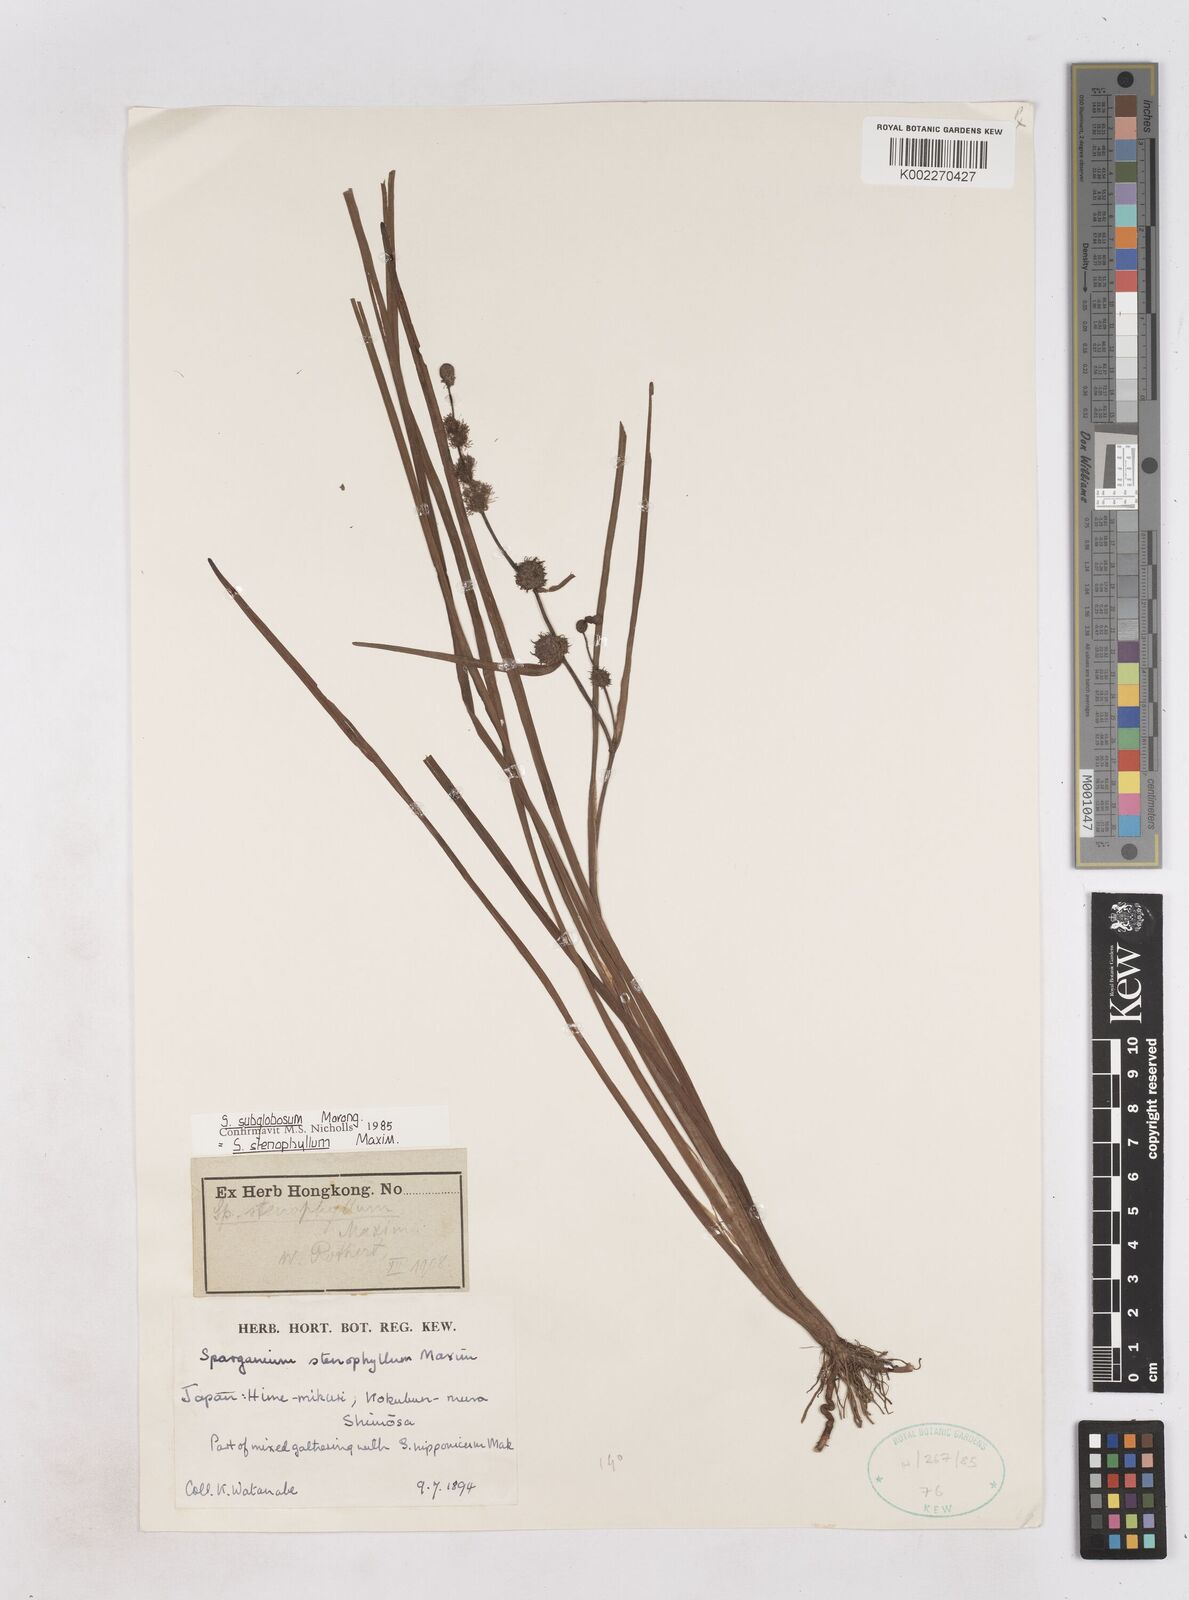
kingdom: Plantae
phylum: Tracheophyta
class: Liliopsida
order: Poales
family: Typhaceae
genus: Sparganium
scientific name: Sparganium subglobosum
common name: Burr­-reed
